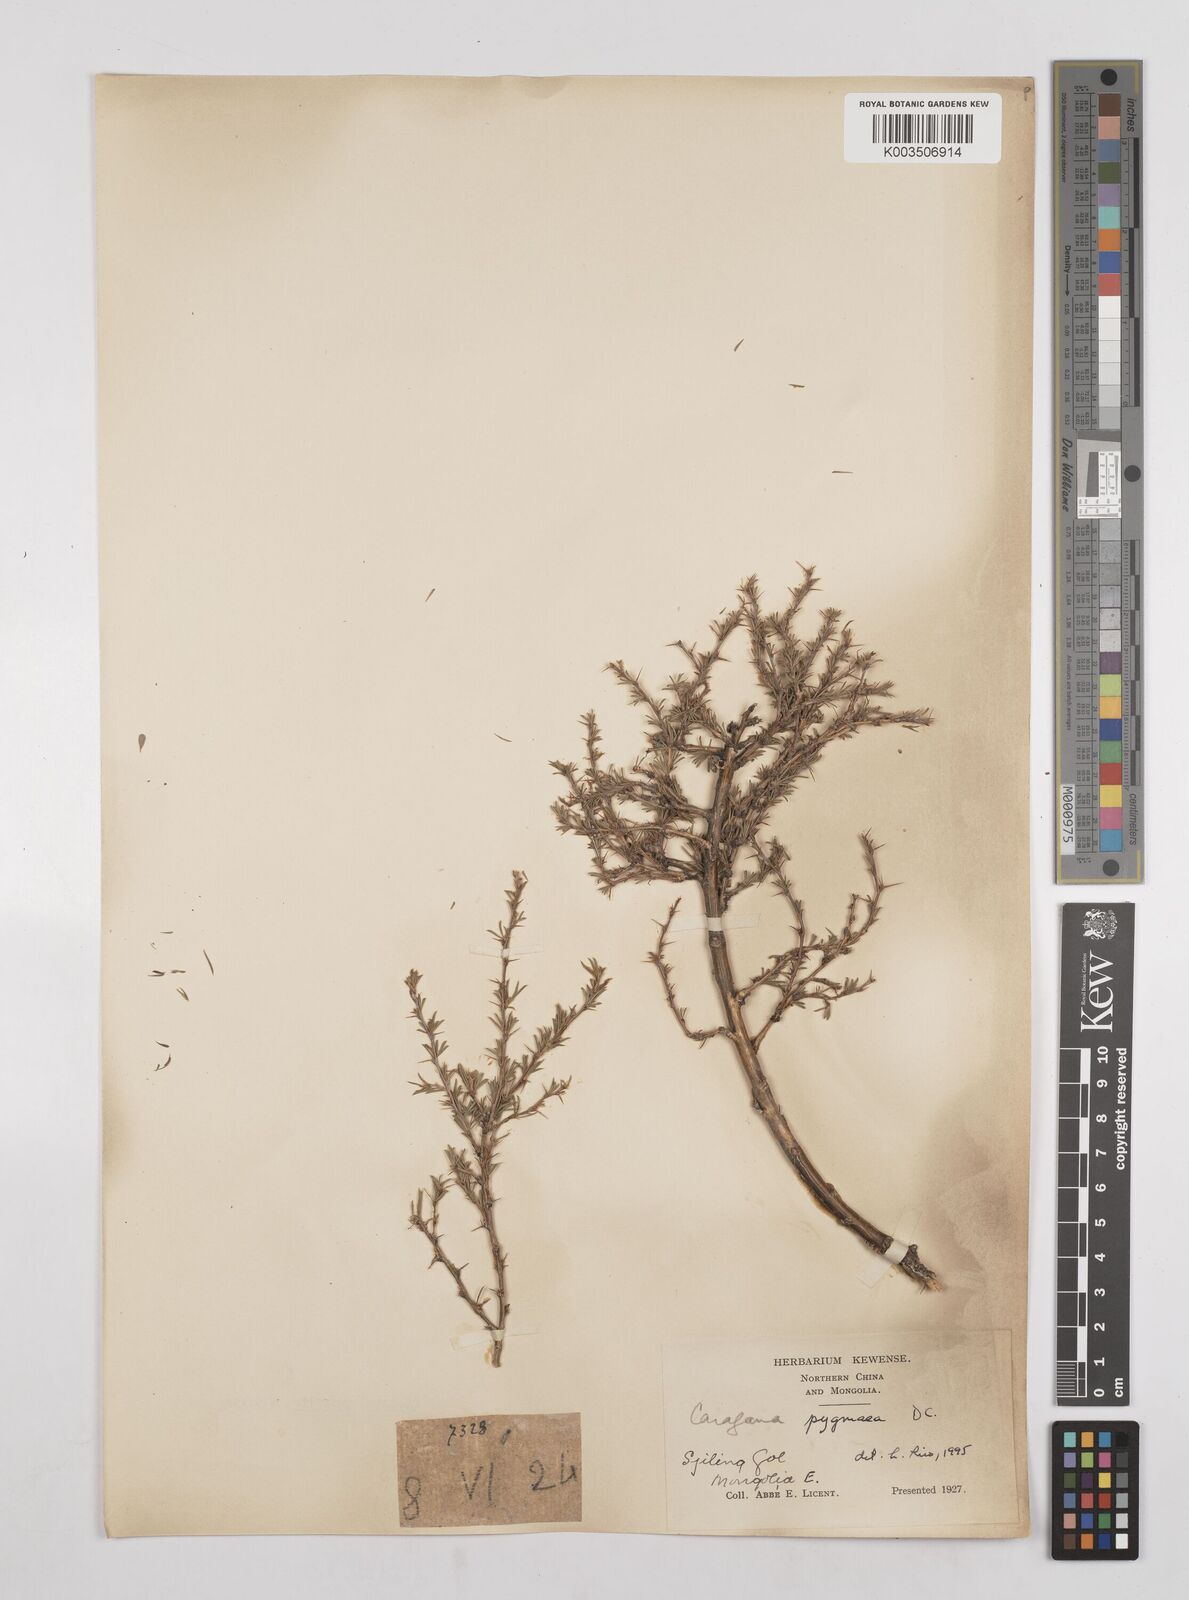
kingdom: Plantae
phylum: Tracheophyta
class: Magnoliopsida
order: Fabales
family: Fabaceae
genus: Caragana
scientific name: Caragana pygmaea
